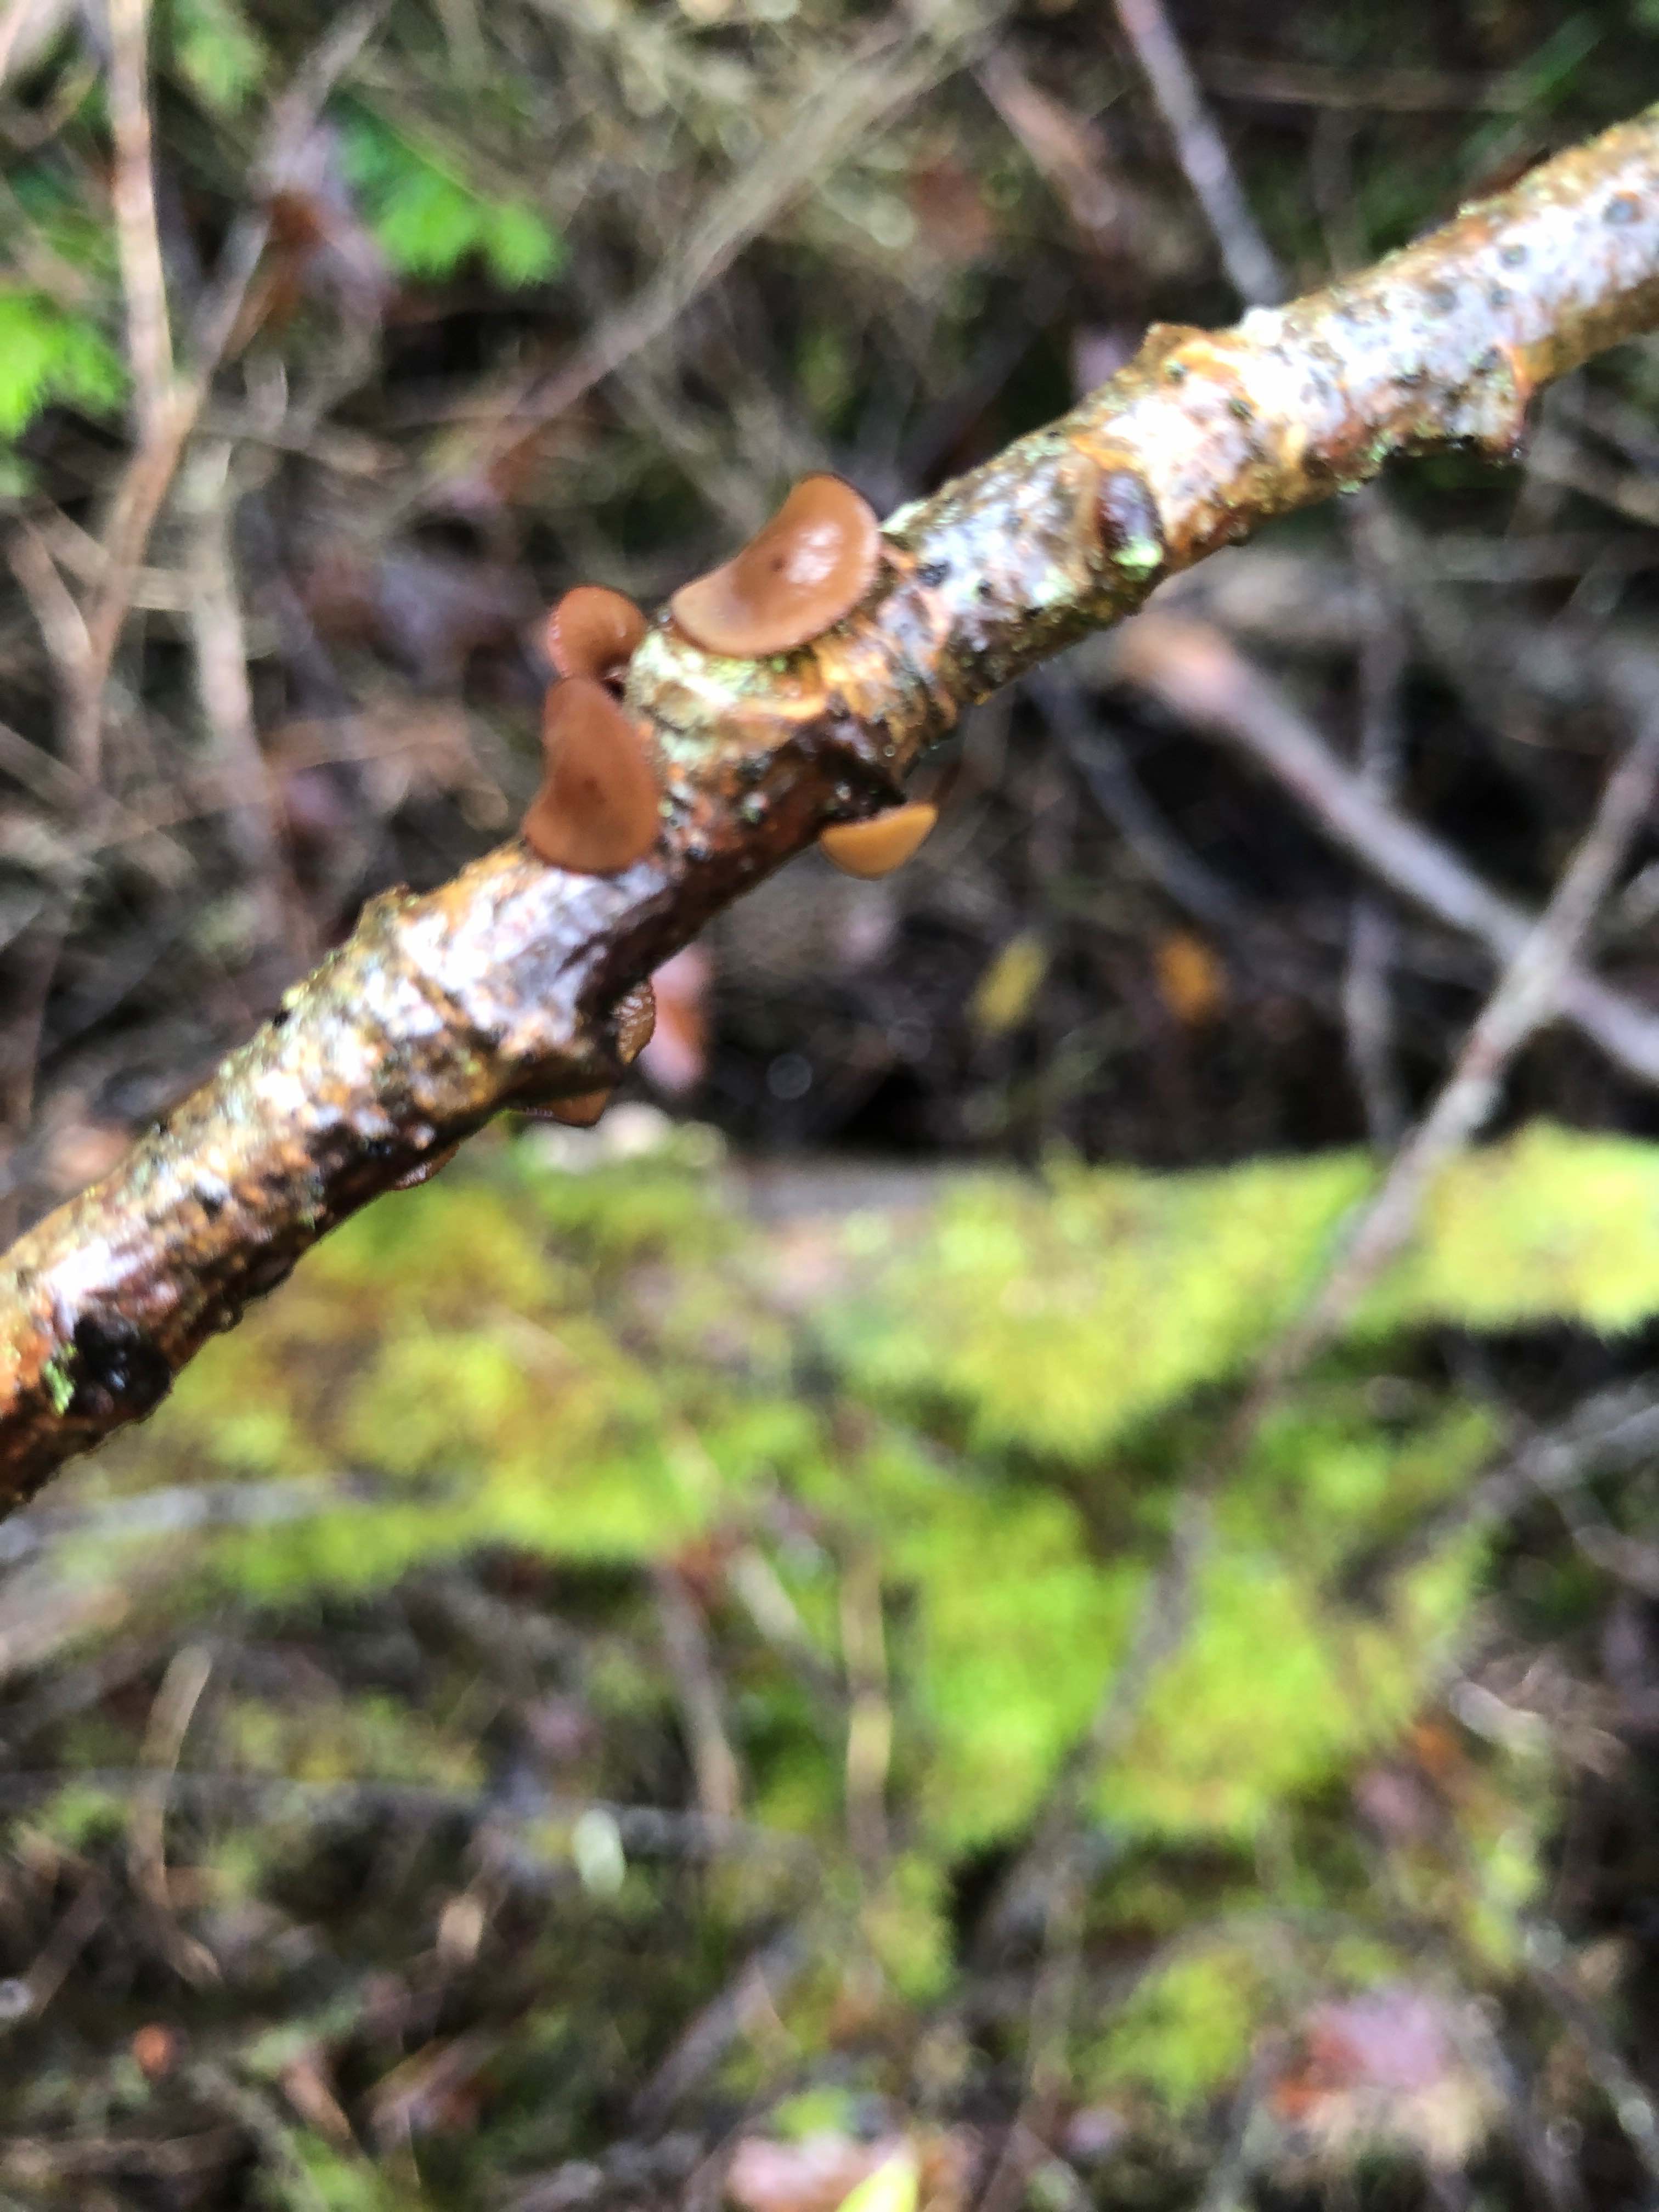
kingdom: Fungi
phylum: Ascomycota
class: Leotiomycetes
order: Helotiales
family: Rutstroemiaceae
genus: Rutstroemia
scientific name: Rutstroemia firma
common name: gren-brunskive
